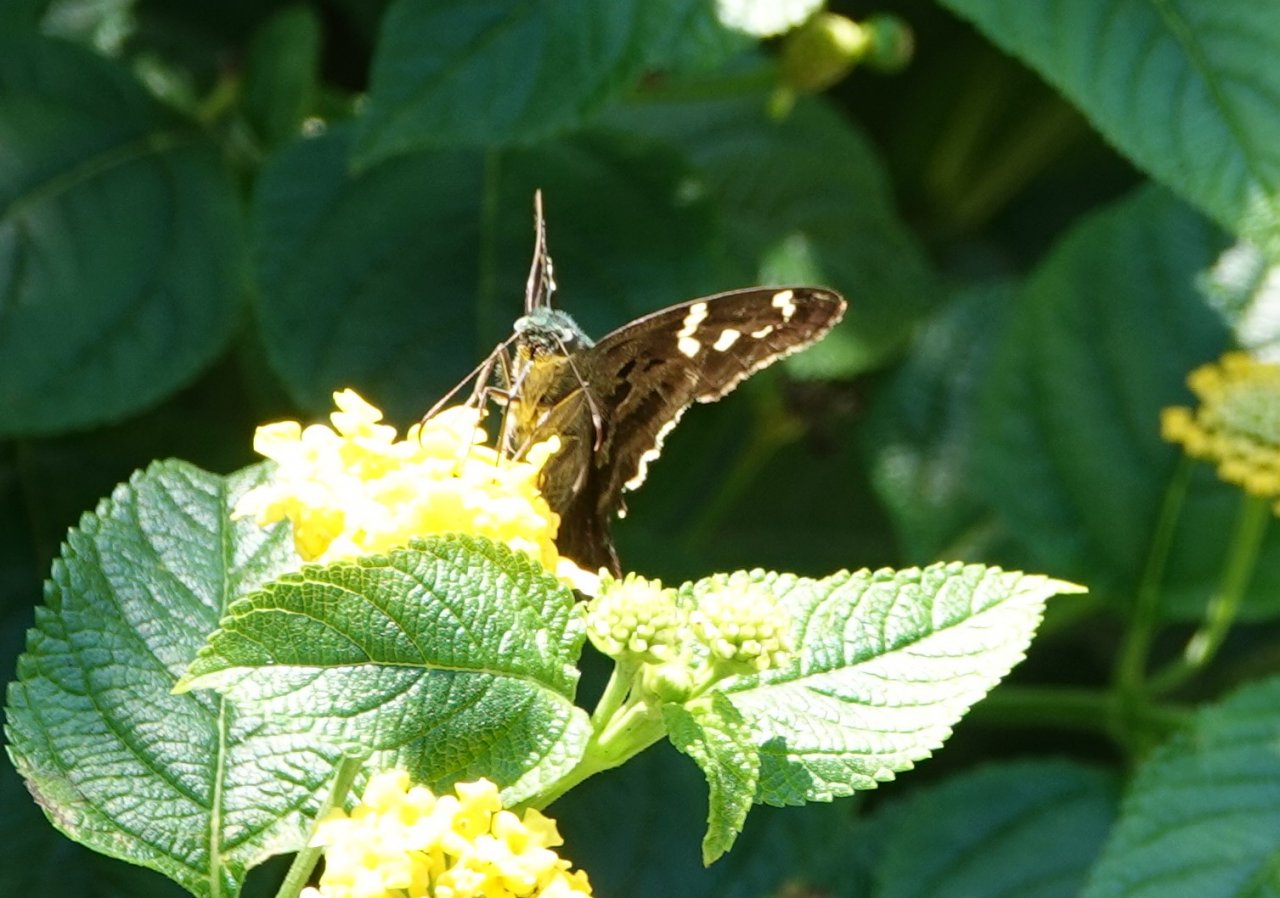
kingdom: Animalia
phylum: Arthropoda
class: Insecta
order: Lepidoptera
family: Hesperiidae
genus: Urbanus
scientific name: Urbanus proteus
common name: Long-tailed Skipper
